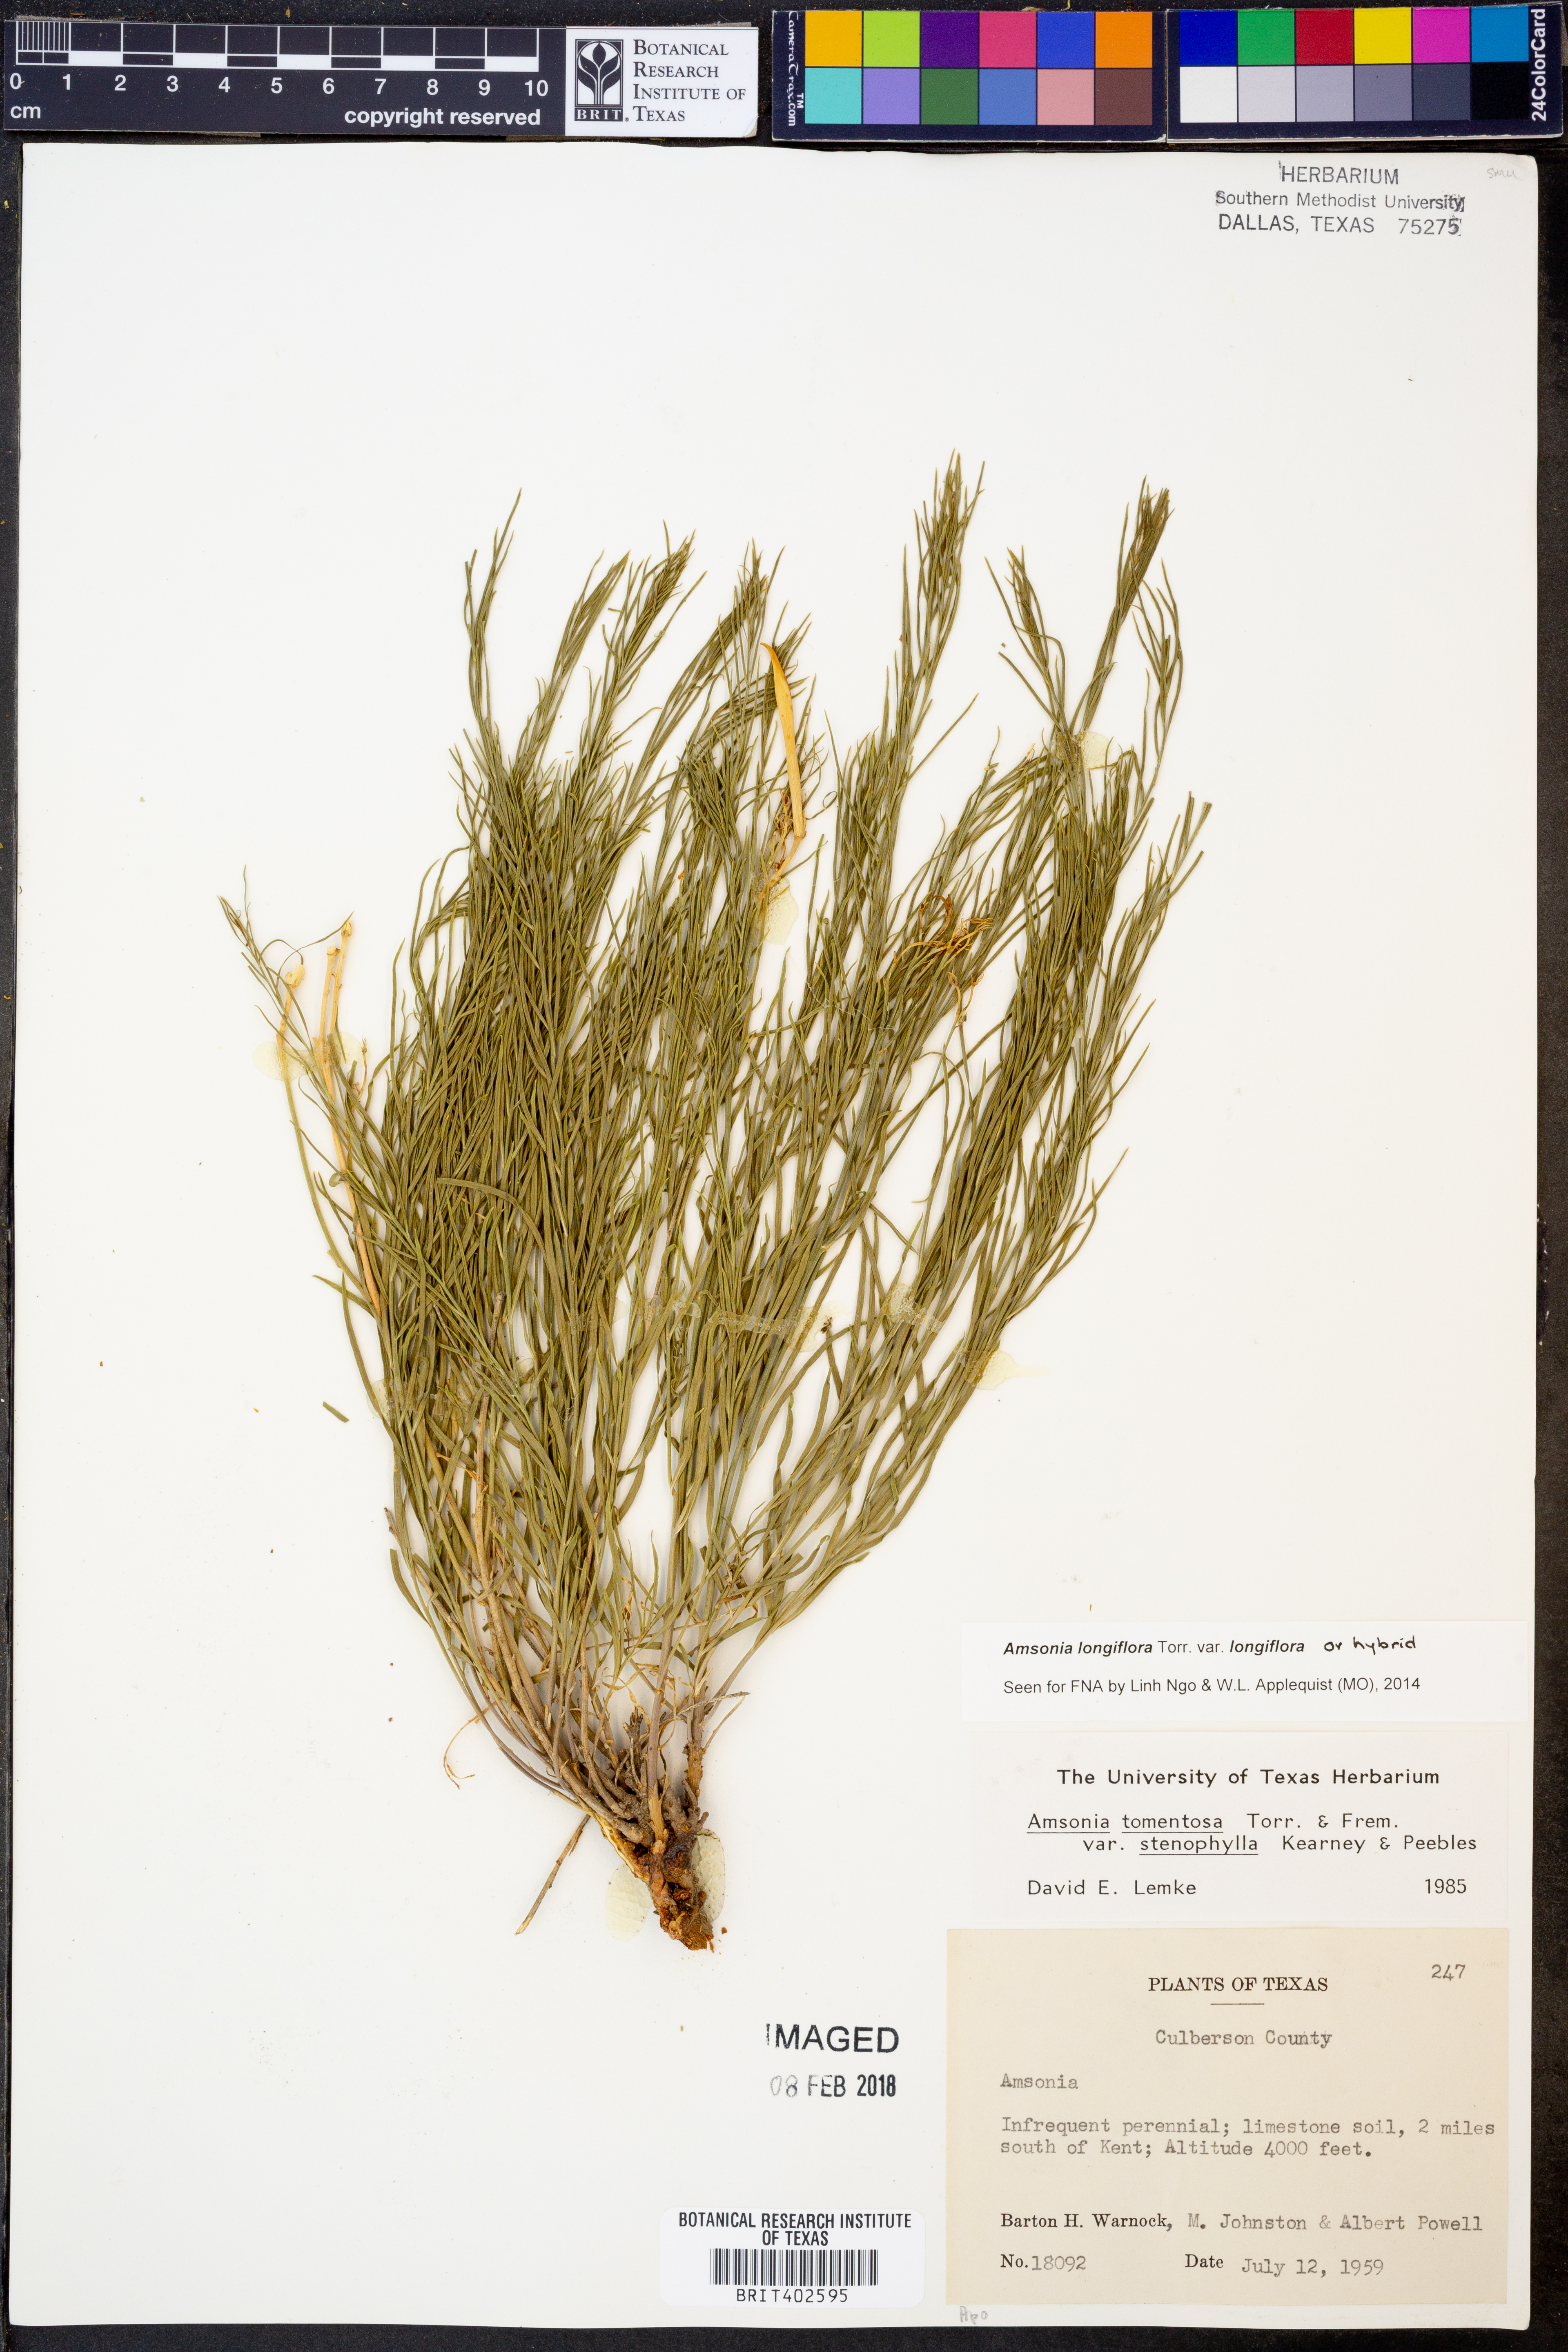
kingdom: Plantae
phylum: Tracheophyta
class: Magnoliopsida
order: Gentianales
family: Apocynaceae
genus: Amsonia
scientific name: Amsonia longiflora
